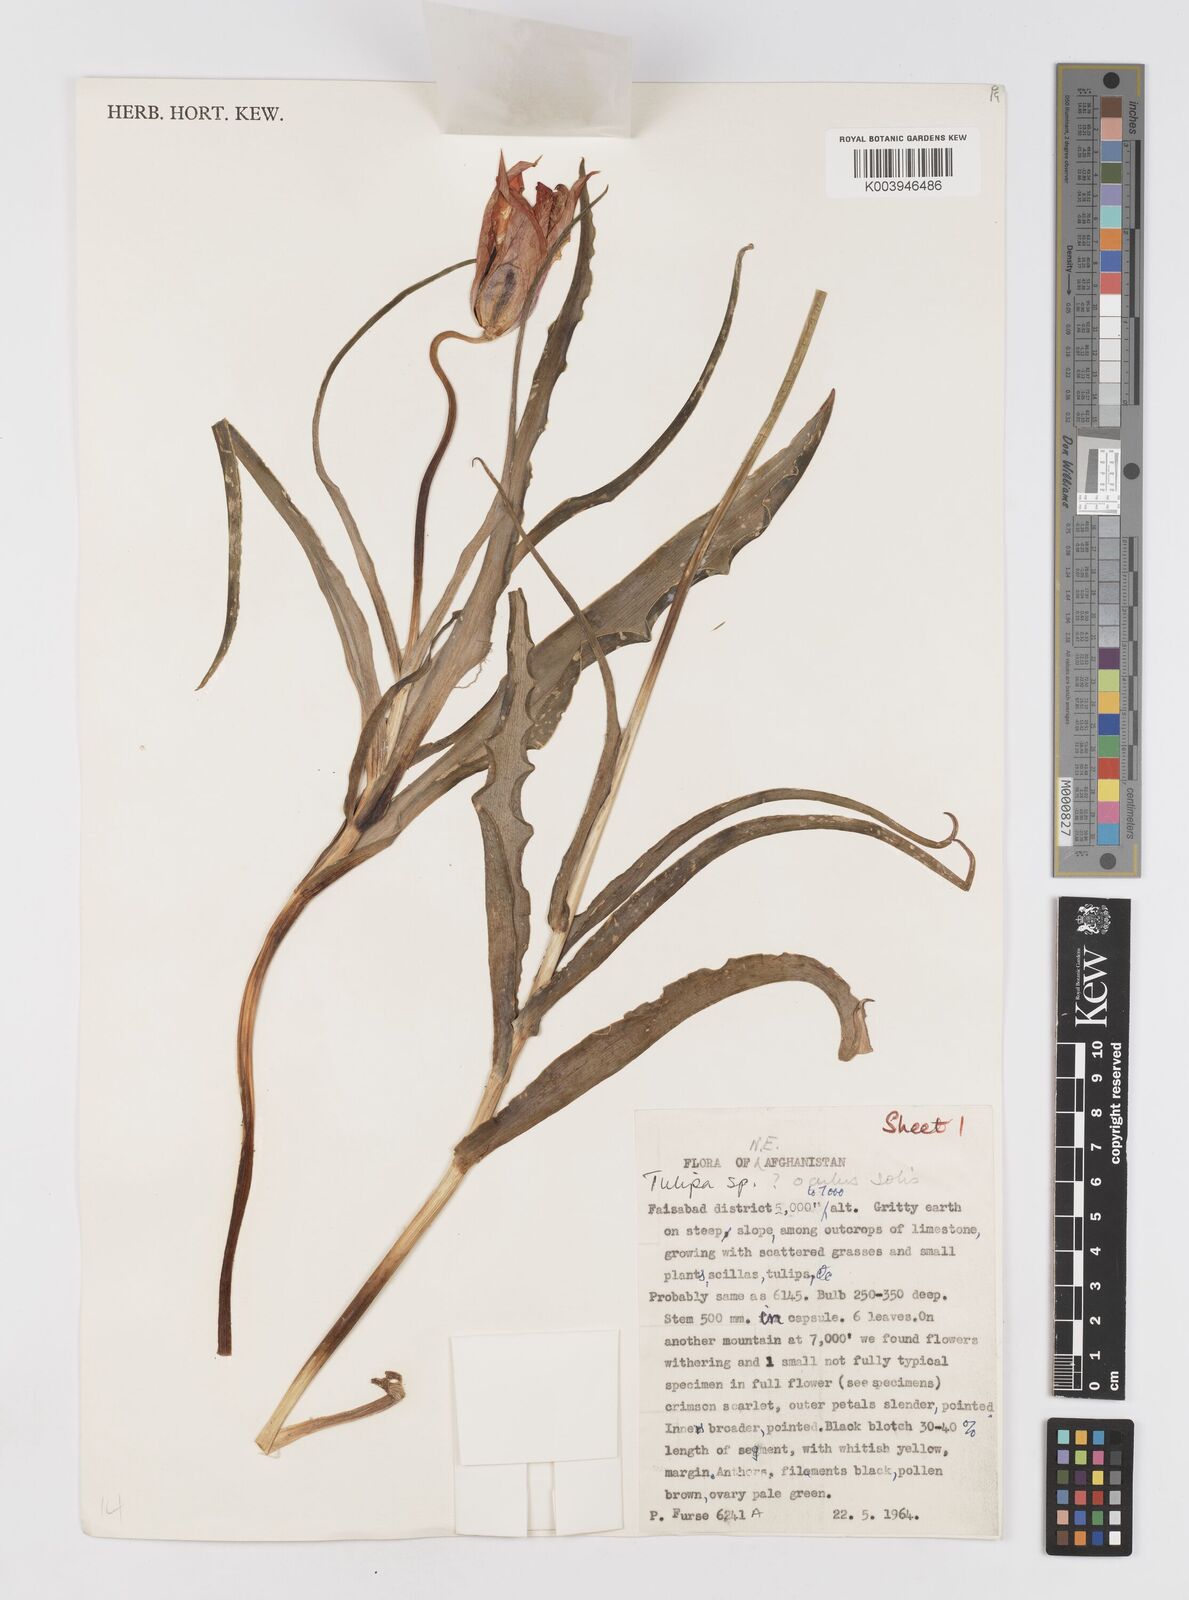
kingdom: Plantae
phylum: Tracheophyta
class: Liliopsida
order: Liliales
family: Liliaceae
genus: Tulipa
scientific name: Tulipa
